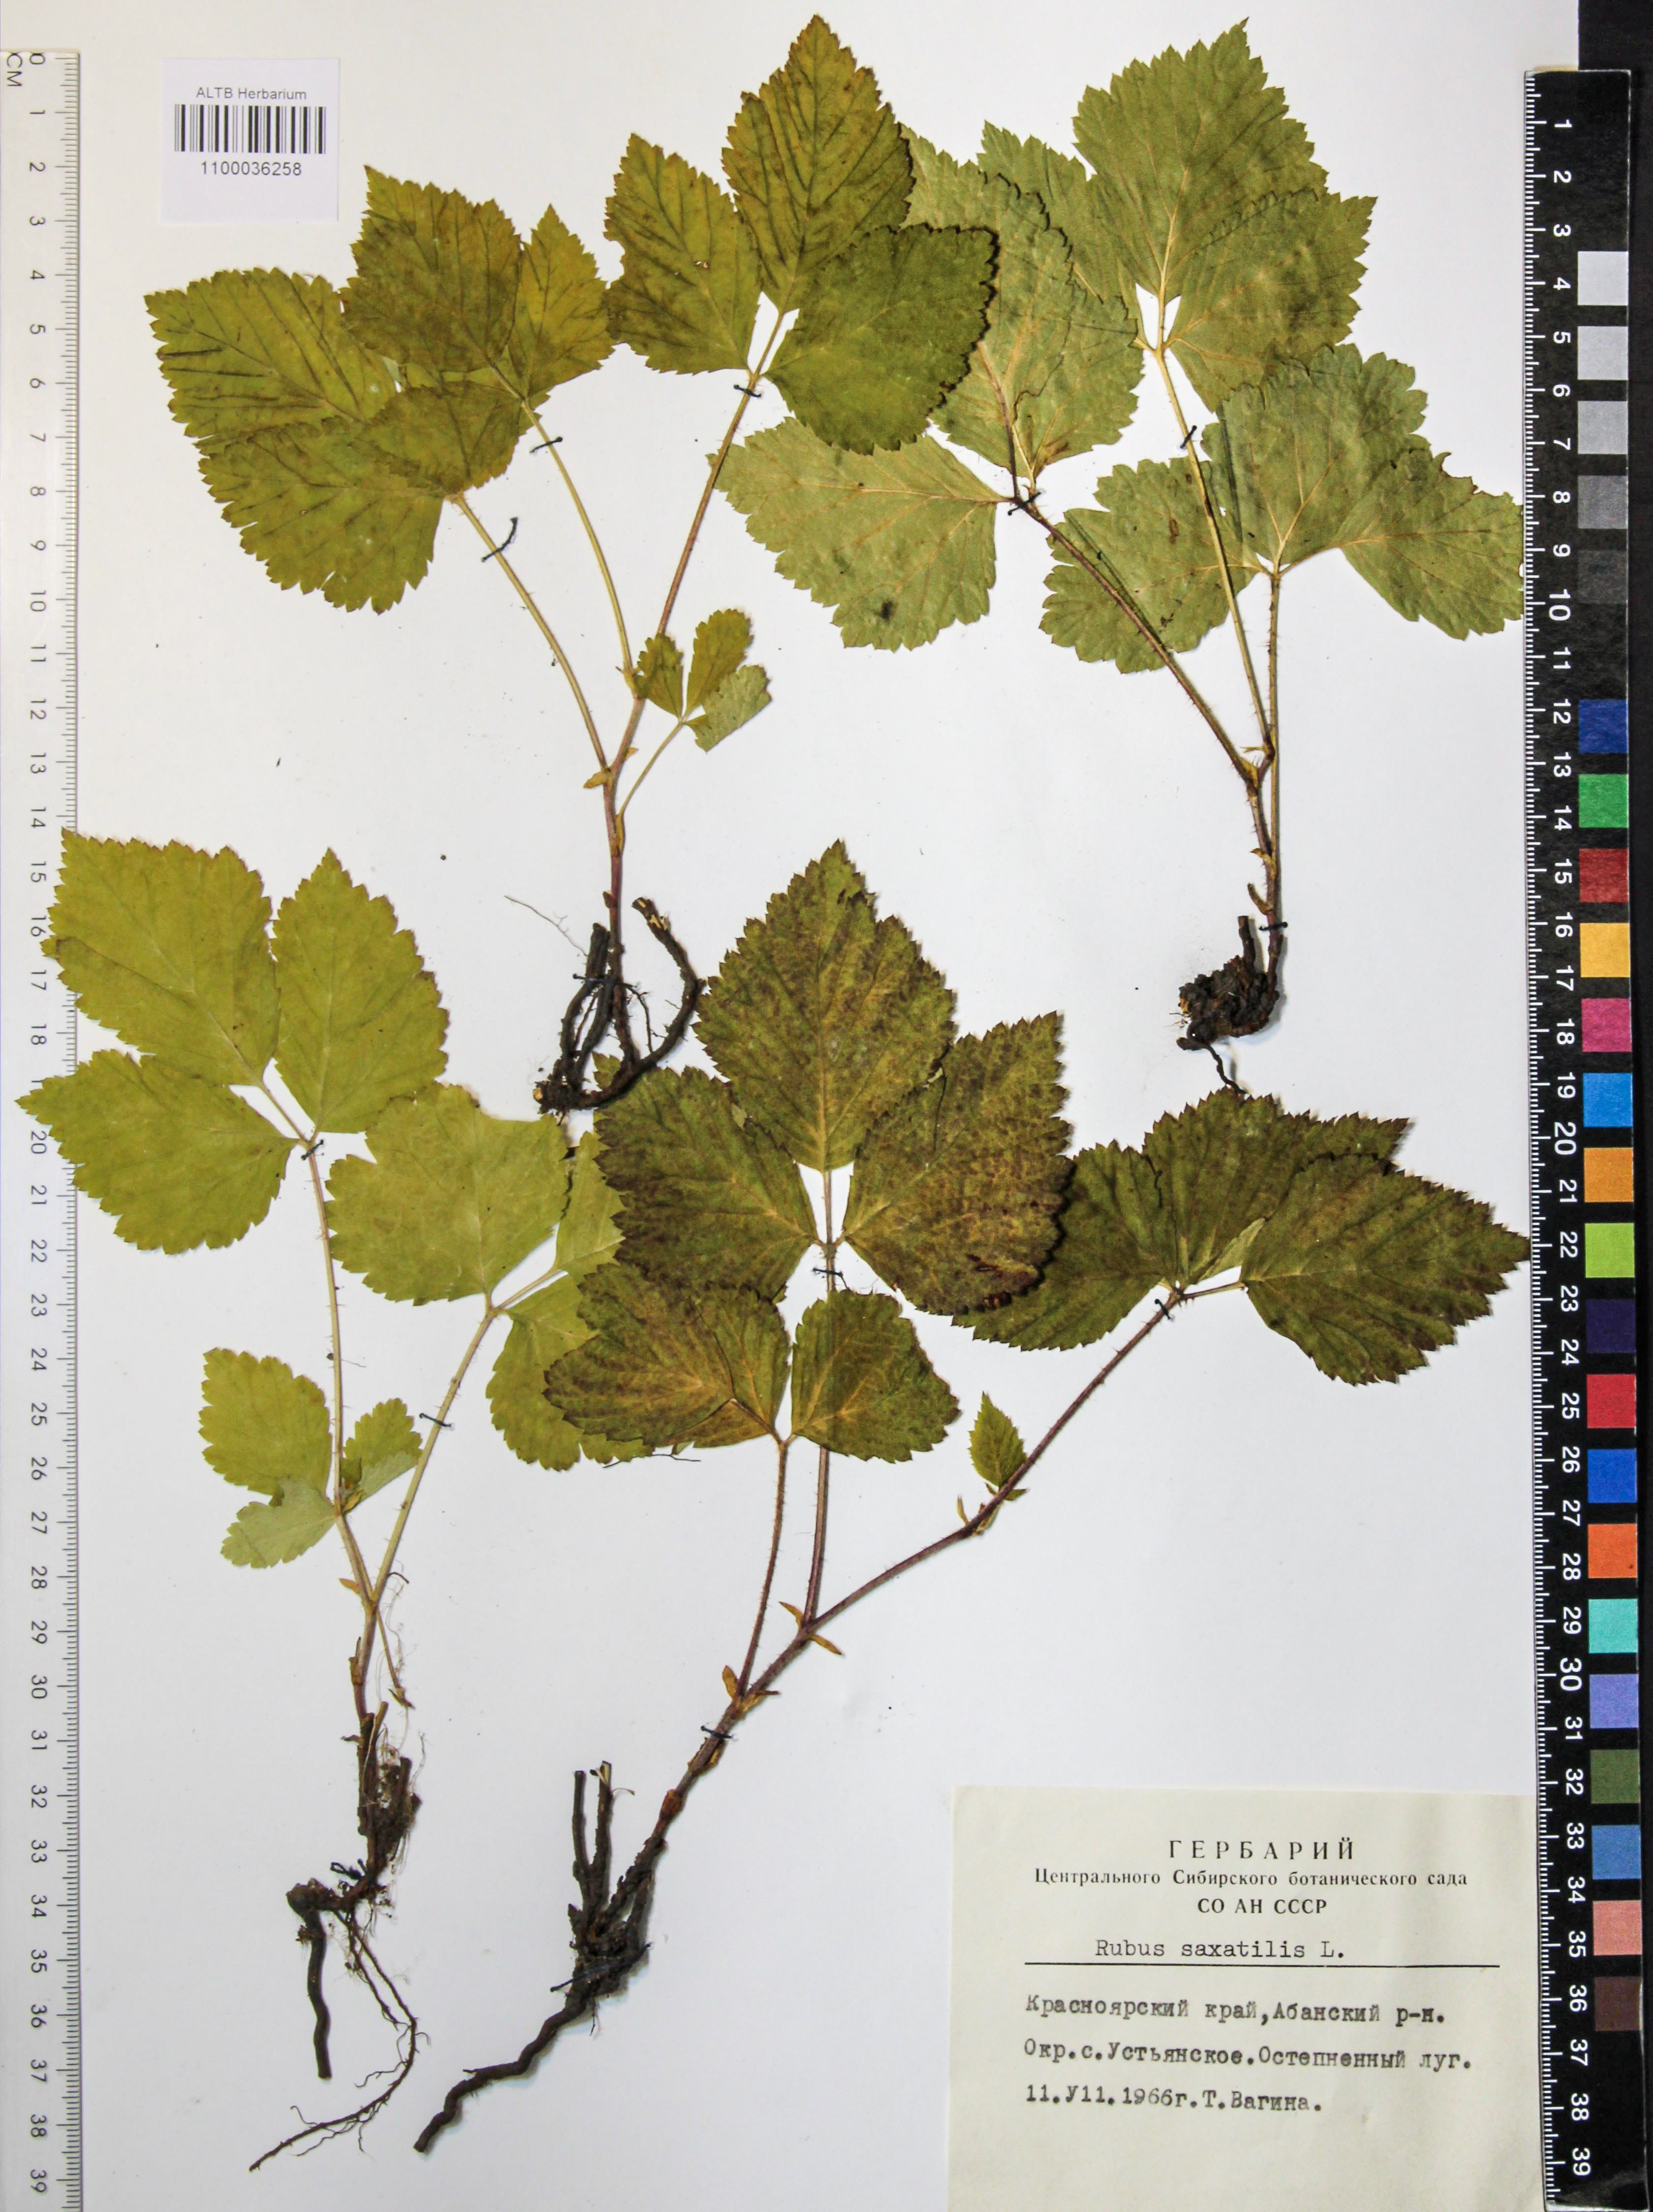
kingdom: Plantae
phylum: Tracheophyta
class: Magnoliopsida
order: Rosales
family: Rosaceae
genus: Rubus
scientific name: Rubus saxatilis
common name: Stone bramble
